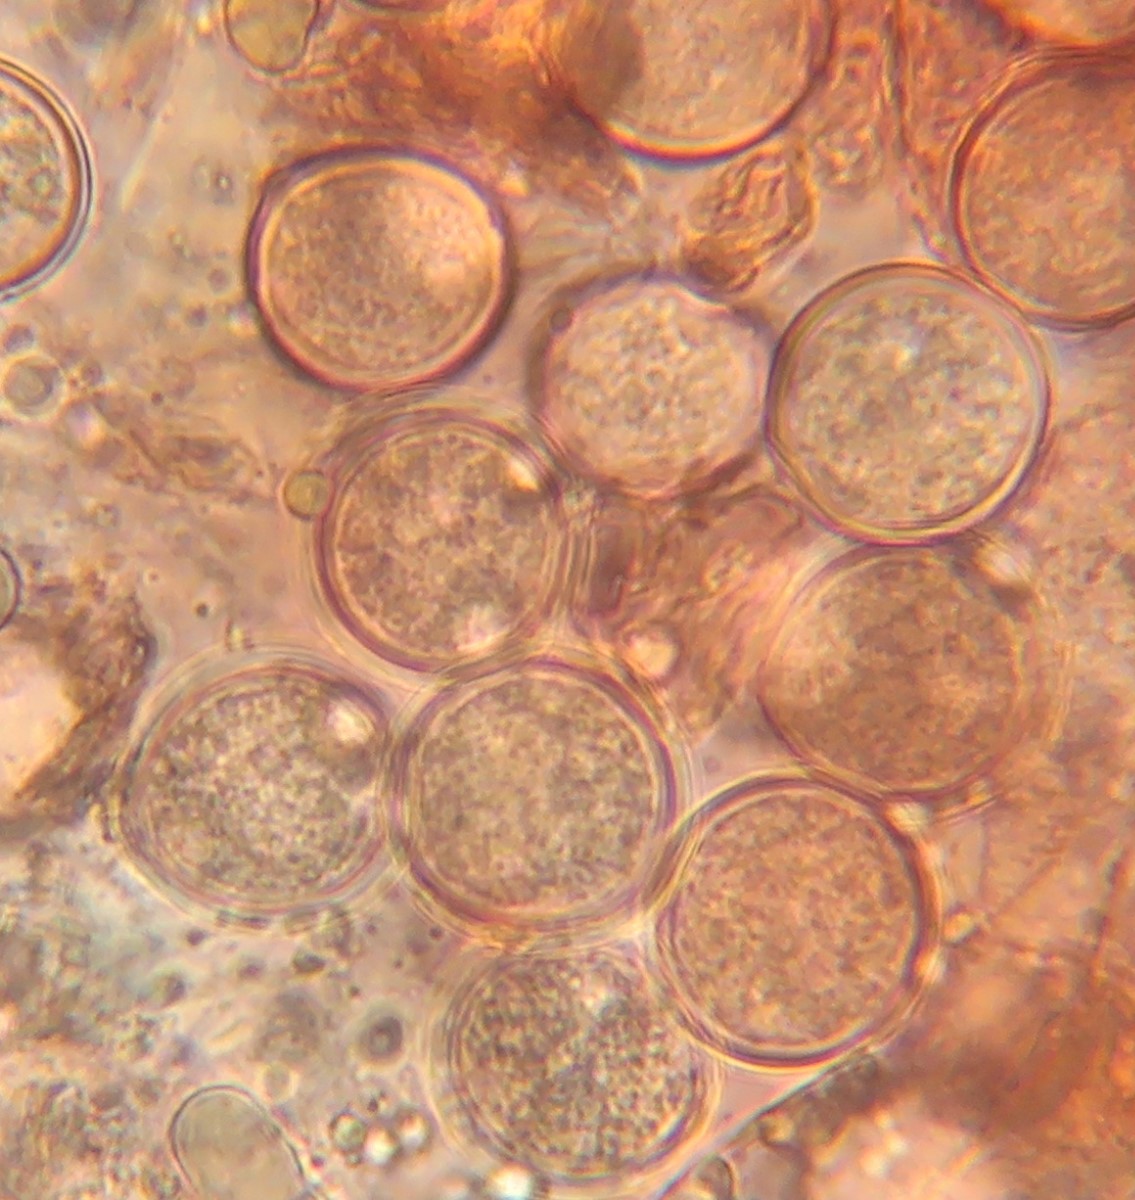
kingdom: Fungi
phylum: Basidiomycota
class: Agaricomycetes
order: Agaricales
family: Physalacriaceae
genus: Mucidula
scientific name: Mucidula mucida
